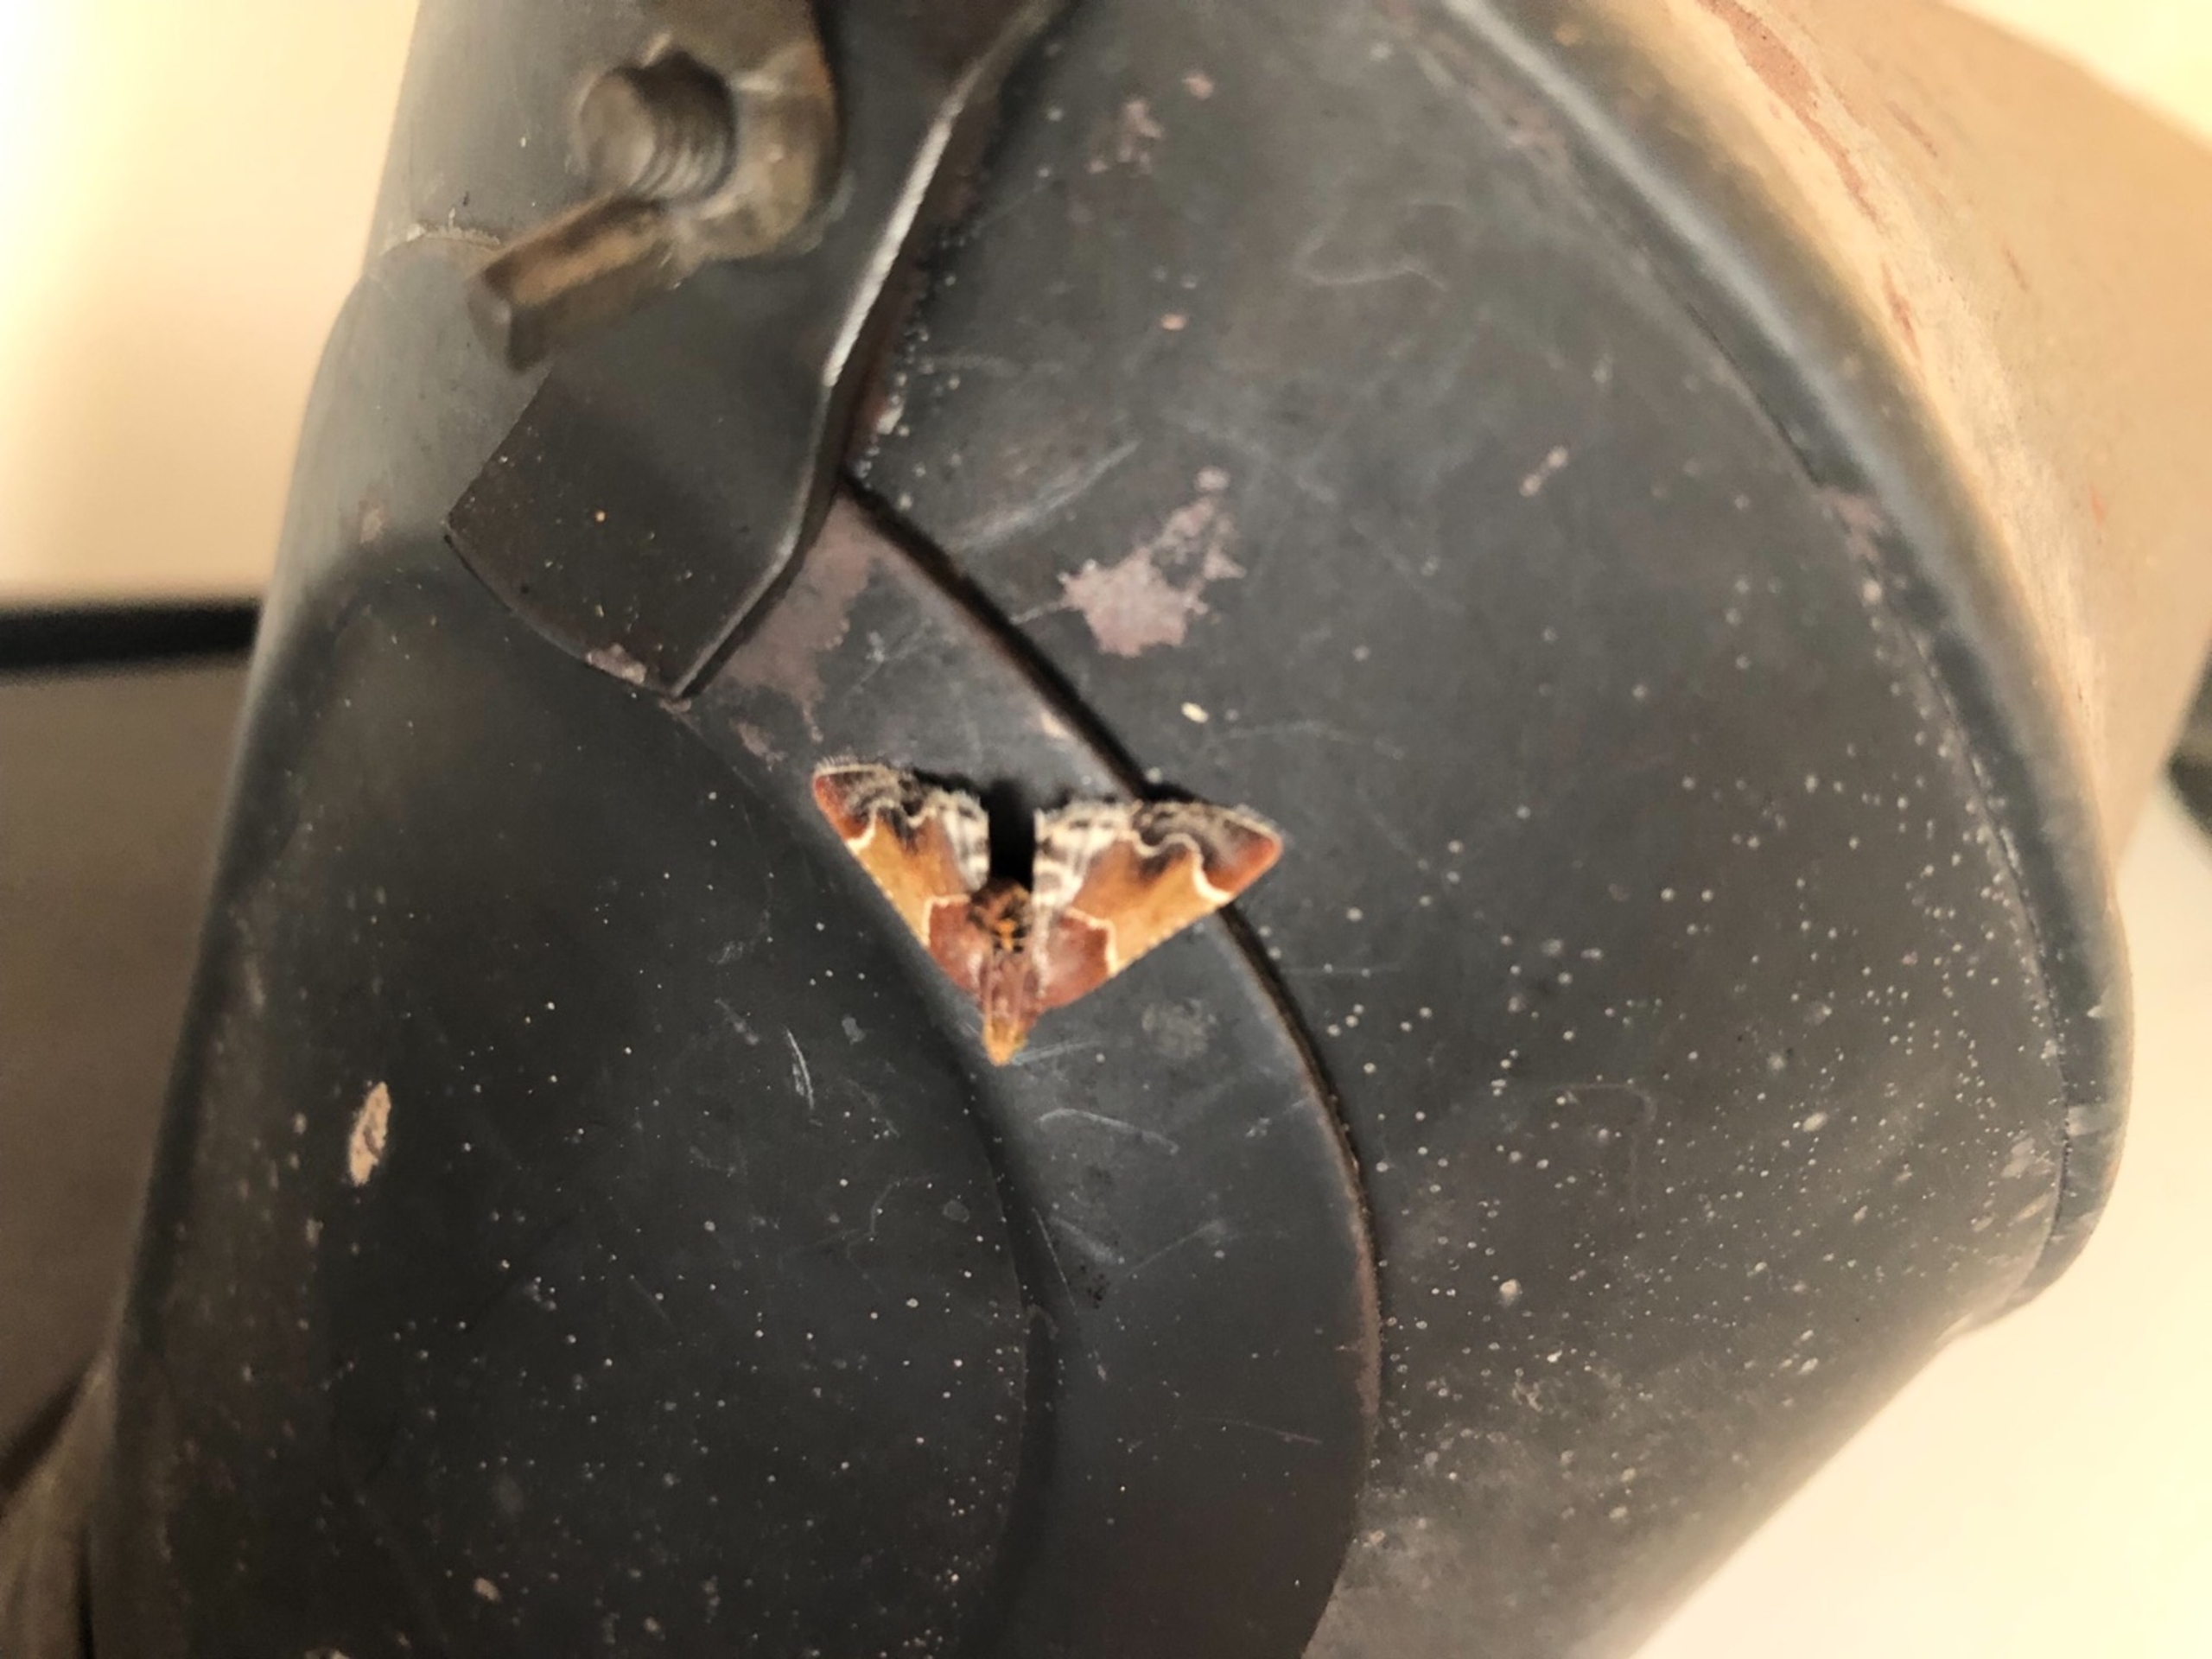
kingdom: Animalia
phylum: Arthropoda
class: Insecta
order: Lepidoptera
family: Pyralidae
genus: Pyralis
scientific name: Pyralis farinalis
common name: Stort melmøl
